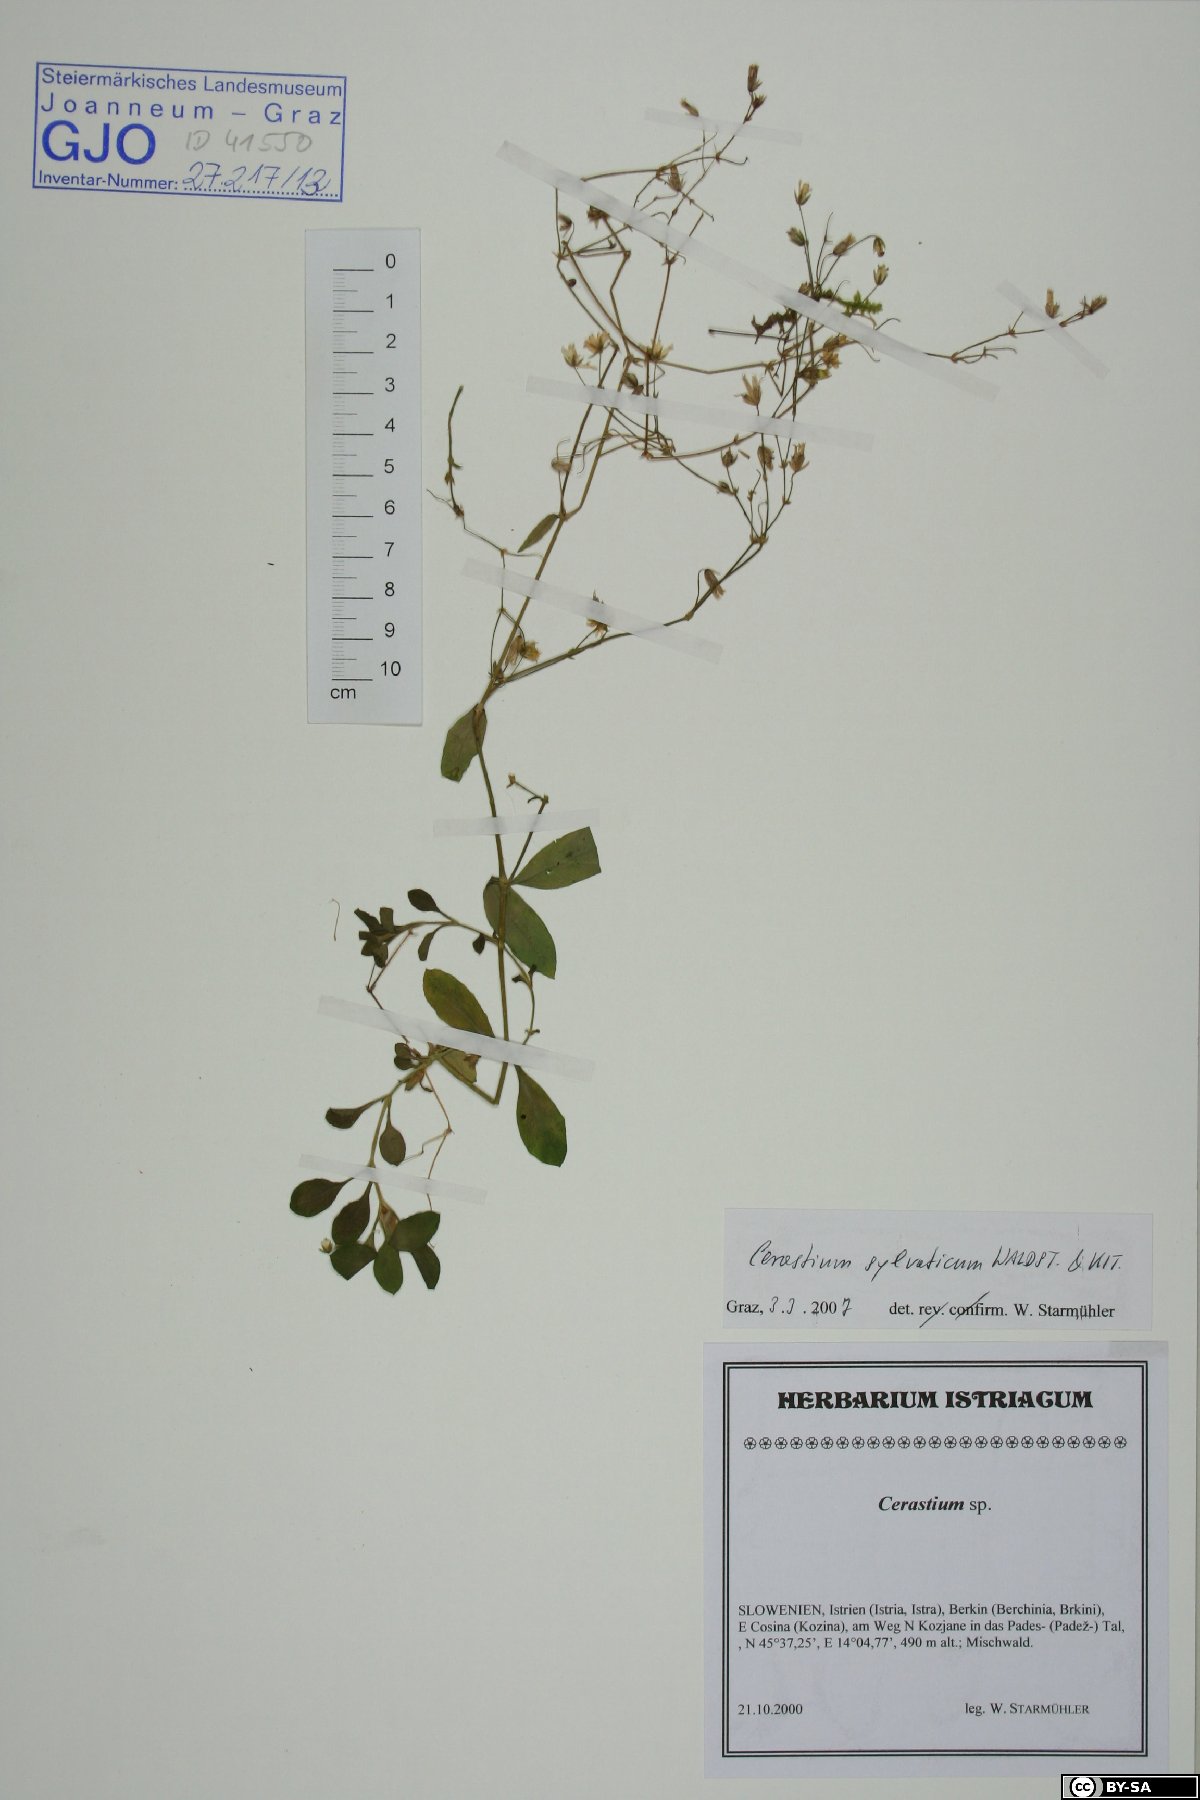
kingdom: Plantae
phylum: Tracheophyta
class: Magnoliopsida
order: Caryophyllales
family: Caryophyllaceae
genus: Cerastium
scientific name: Cerastium sylvaticum
